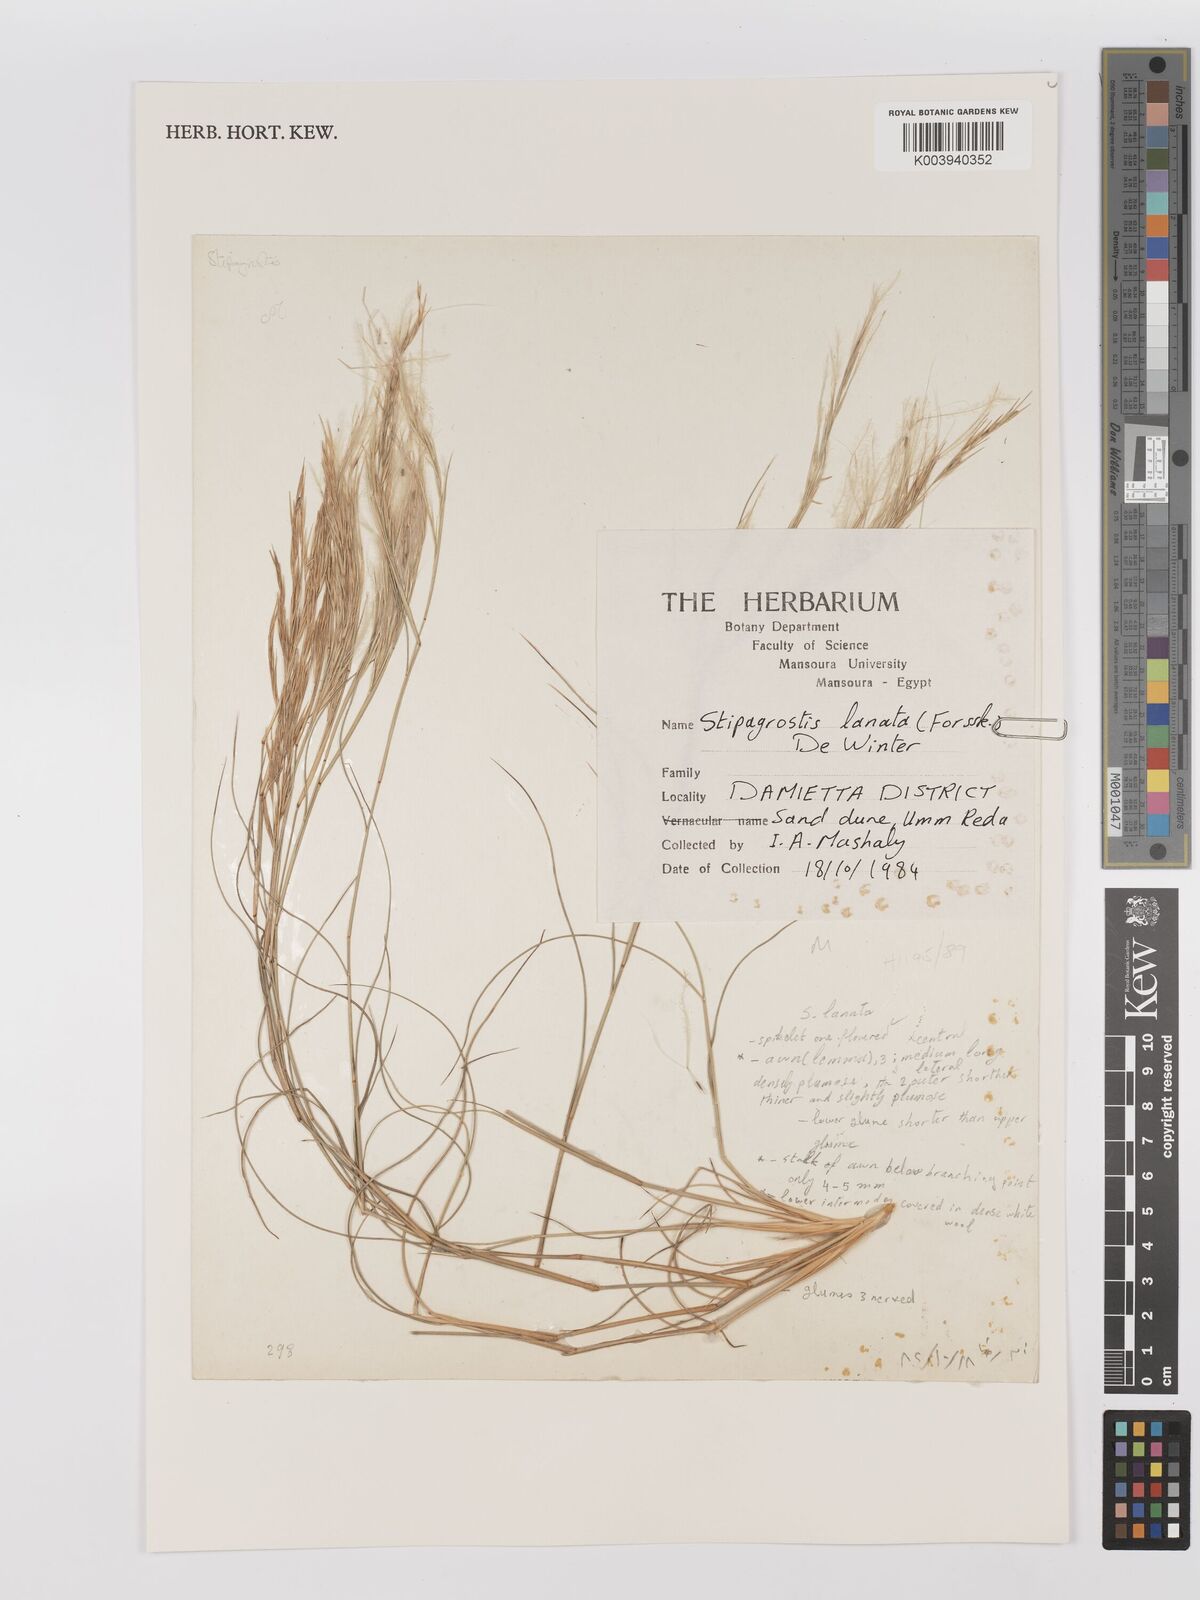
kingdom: Plantae
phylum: Tracheophyta
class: Liliopsida
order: Poales
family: Poaceae
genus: Stipagrostis
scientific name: Stipagrostis lanata
